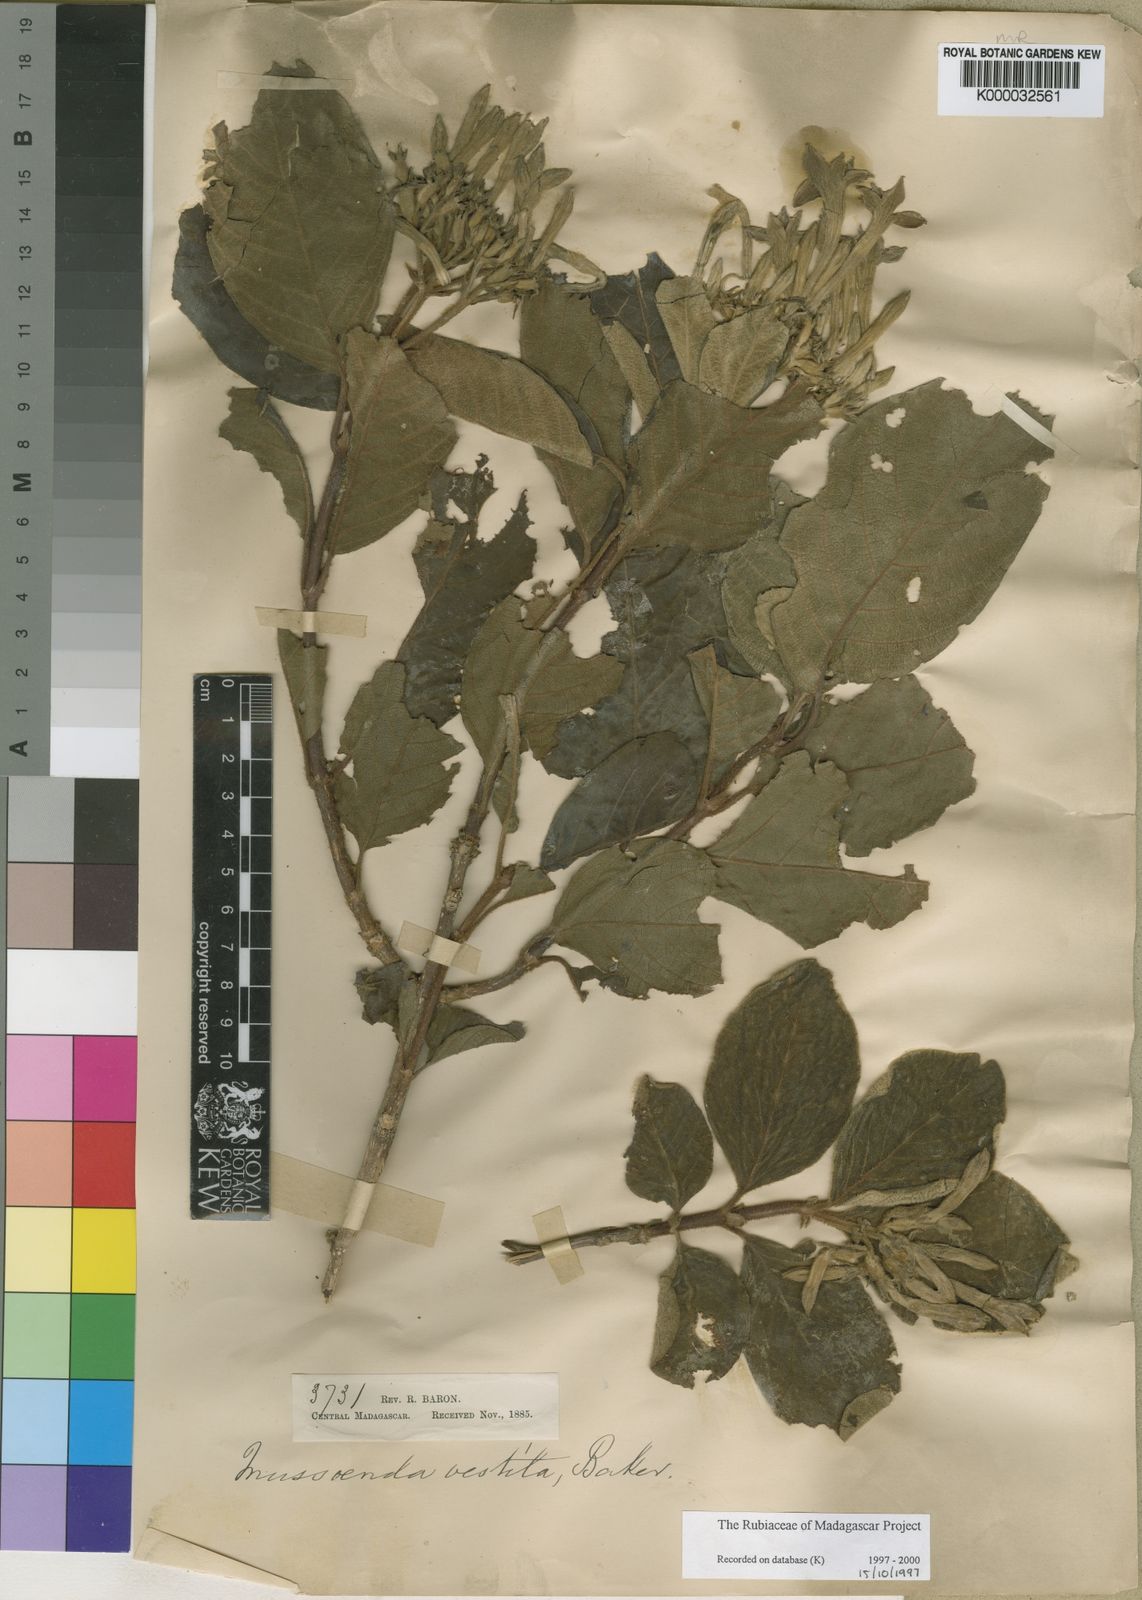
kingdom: Plantae
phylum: Tracheophyta
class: Magnoliopsida
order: Gentianales
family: Rubiaceae
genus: Bremeria
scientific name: Bremeria vestita
